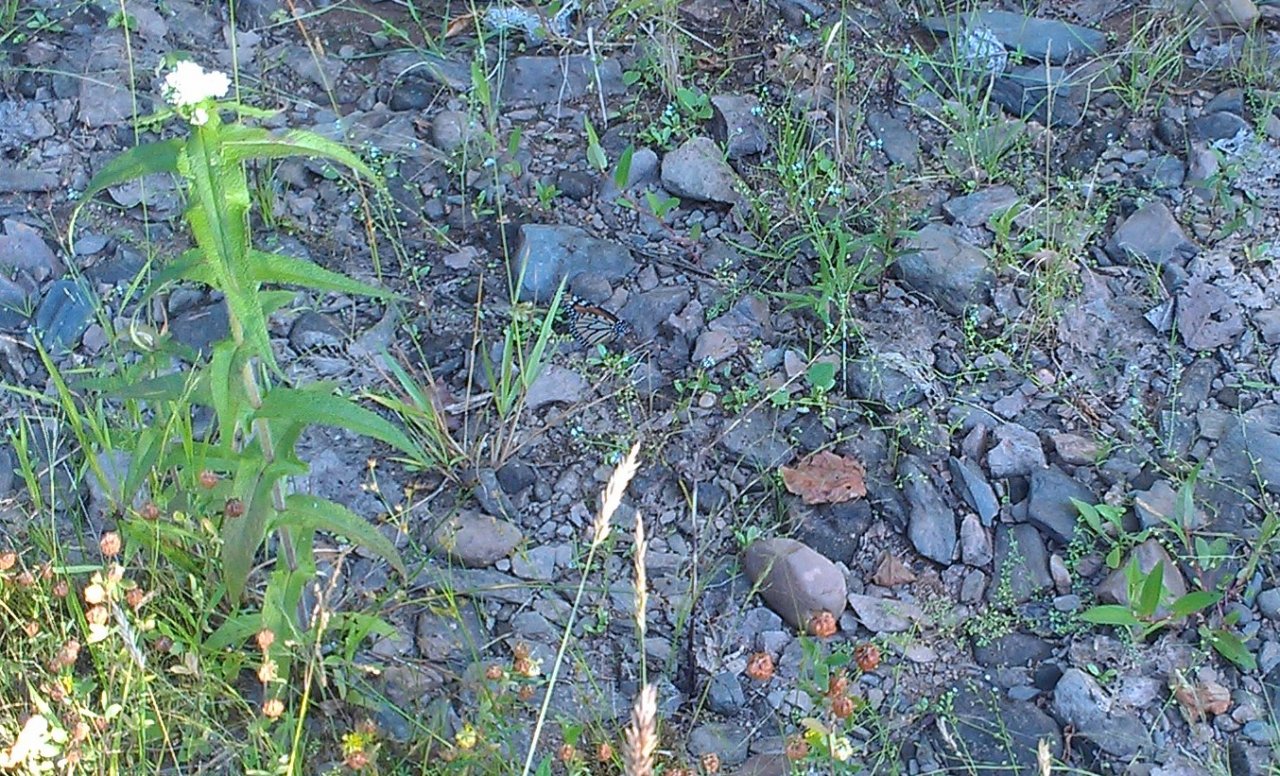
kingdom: Animalia
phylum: Arthropoda
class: Insecta
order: Lepidoptera
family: Nymphalidae
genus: Danaus
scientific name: Danaus plexippus
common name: Monarch
